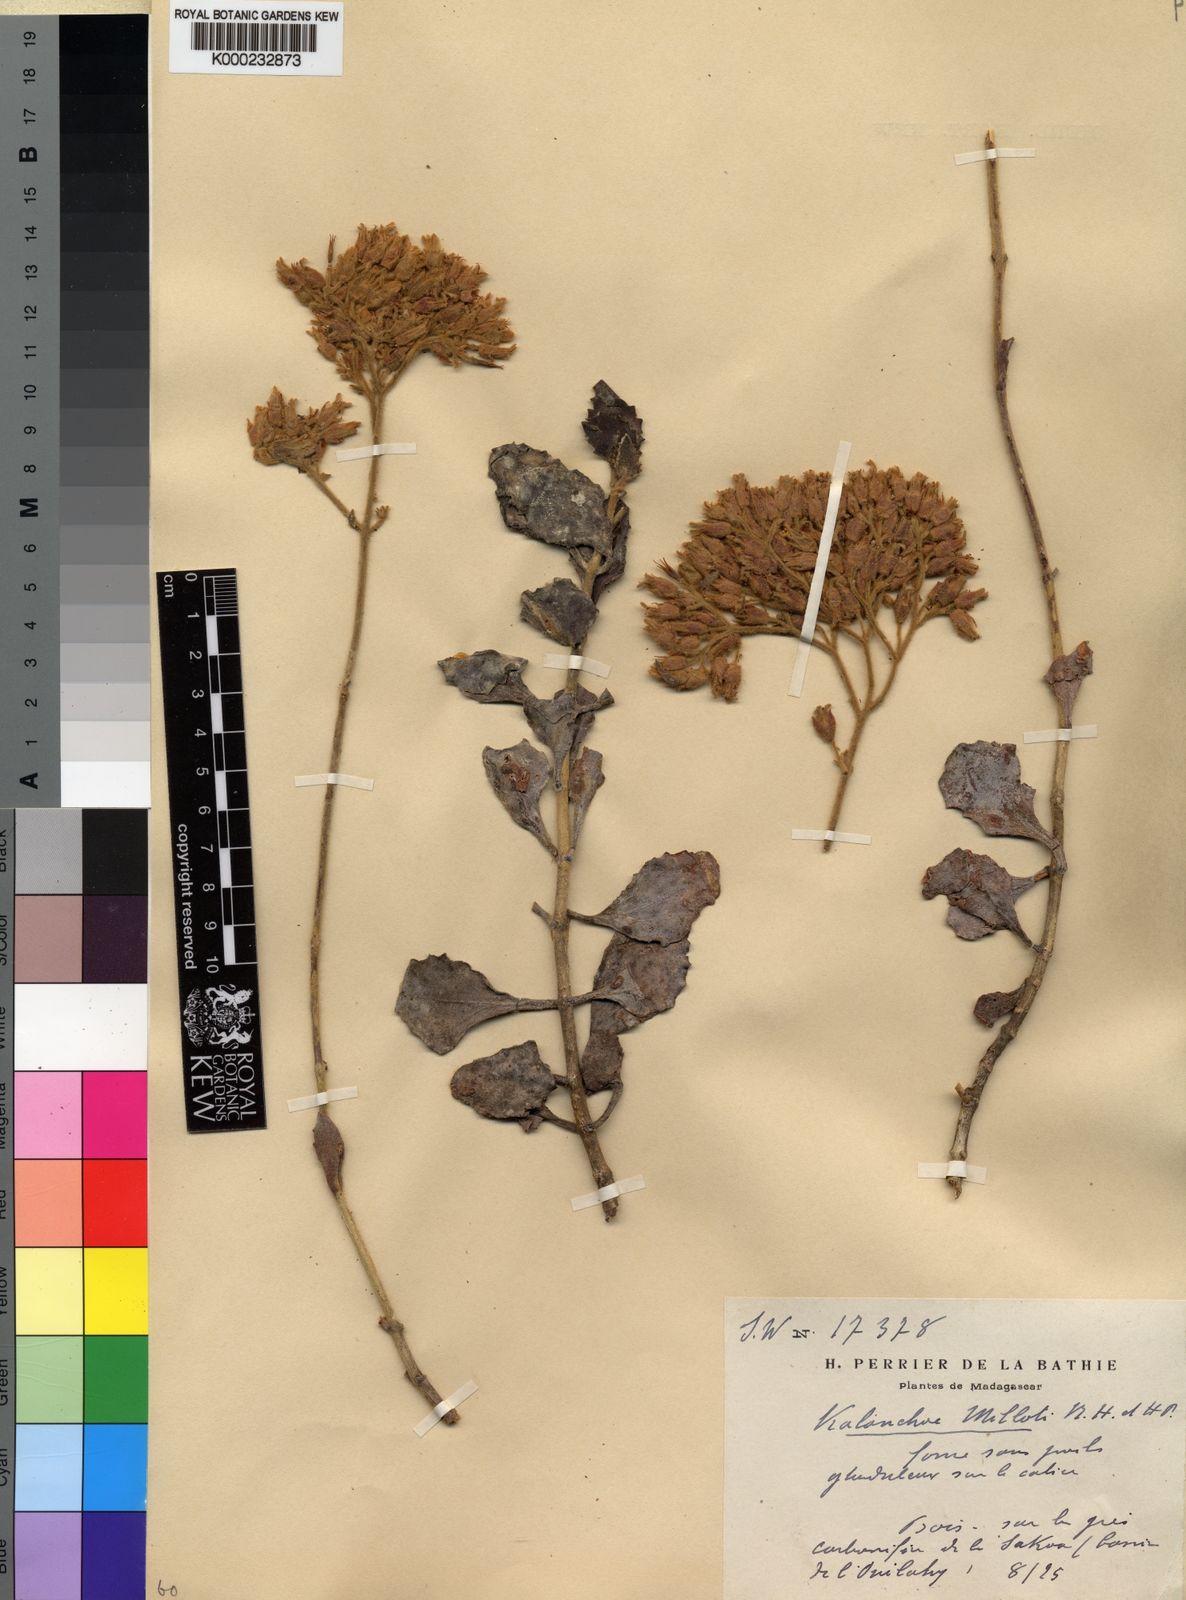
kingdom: Plantae
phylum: Tracheophyta
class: Magnoliopsida
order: Saxifragales
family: Crassulaceae
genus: Kalanchoe
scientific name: Kalanchoe millotii
